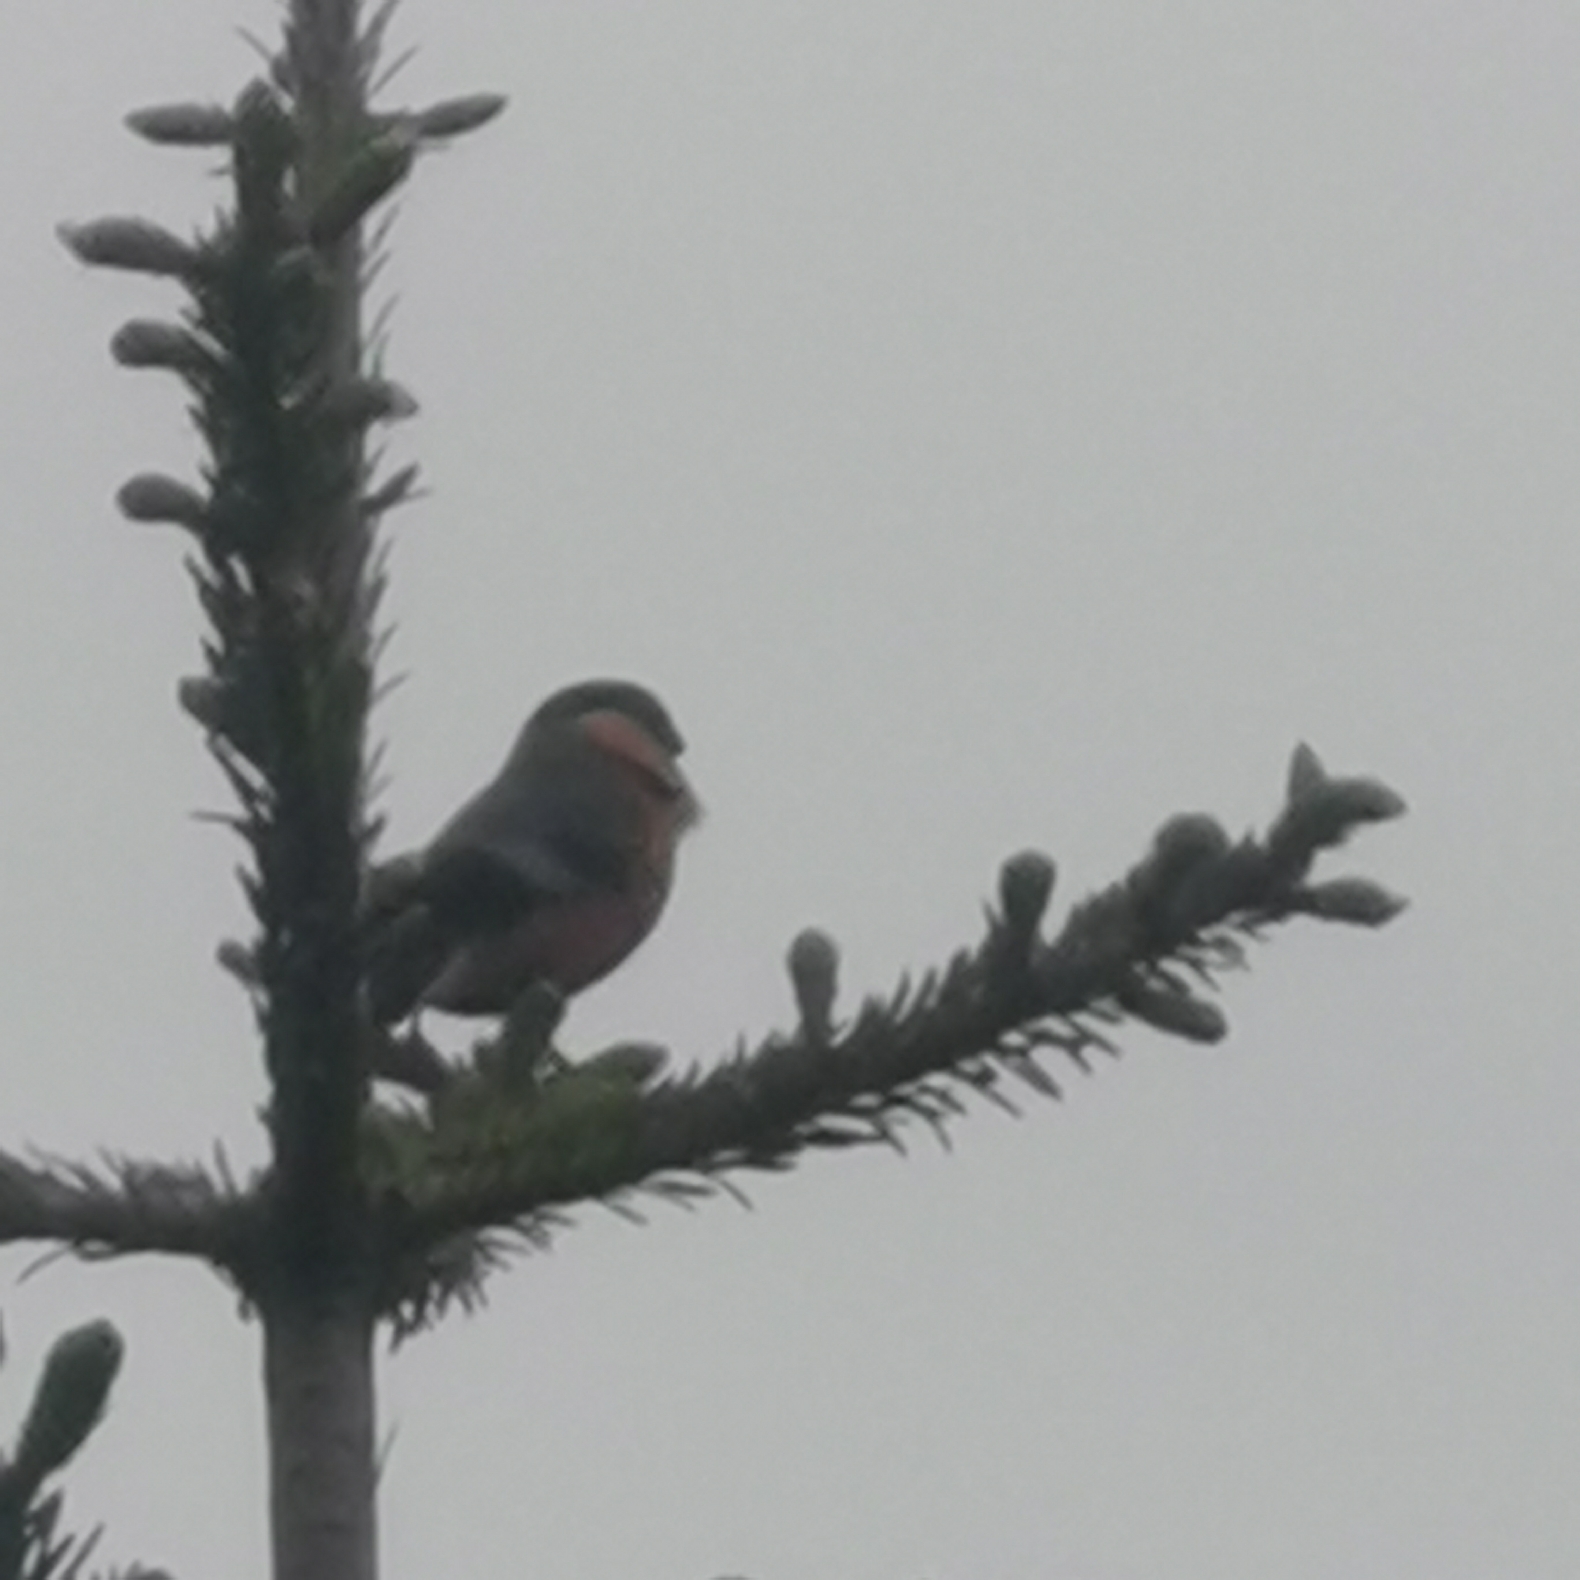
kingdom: Animalia
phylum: Chordata
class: Aves
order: Passeriformes
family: Fringillidae
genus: Pyrrhula
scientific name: Pyrrhula pyrrhula
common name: Dompap
